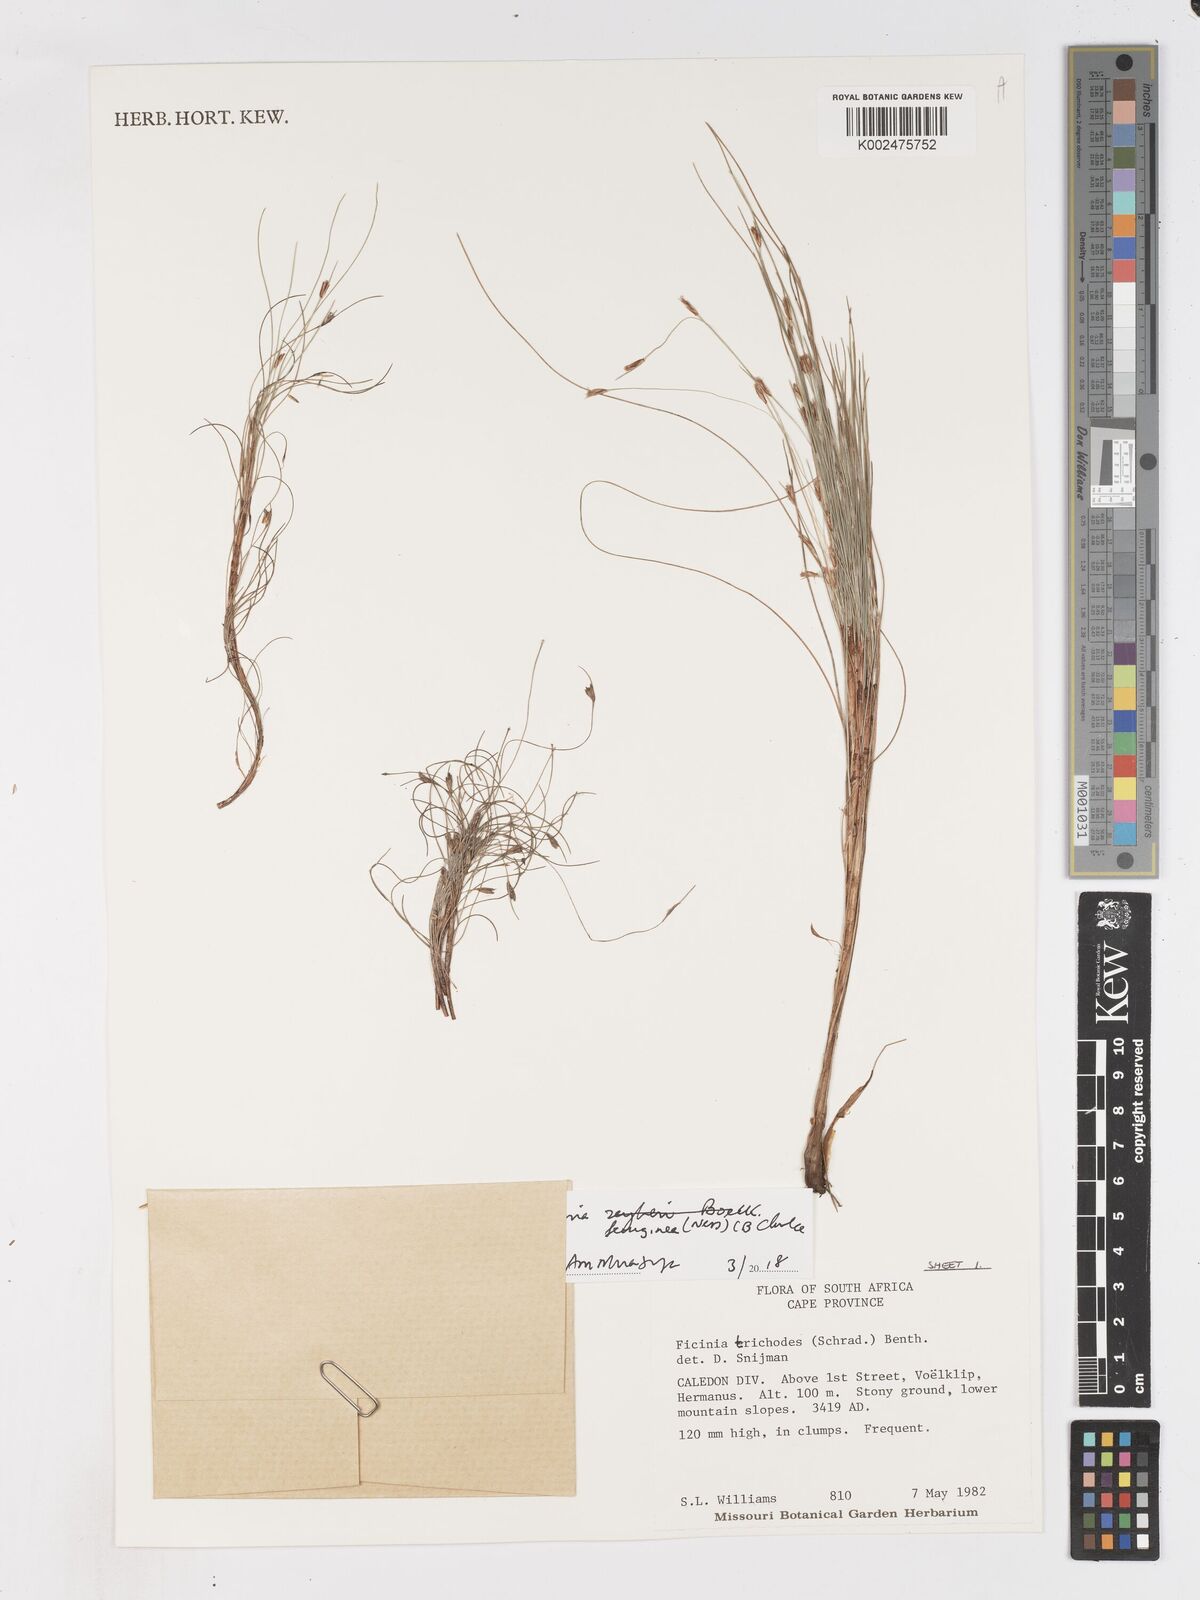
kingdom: Plantae
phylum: Tracheophyta
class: Liliopsida
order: Poales
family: Cyperaceae
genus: Ficinia
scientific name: Ficinia ramosissima
